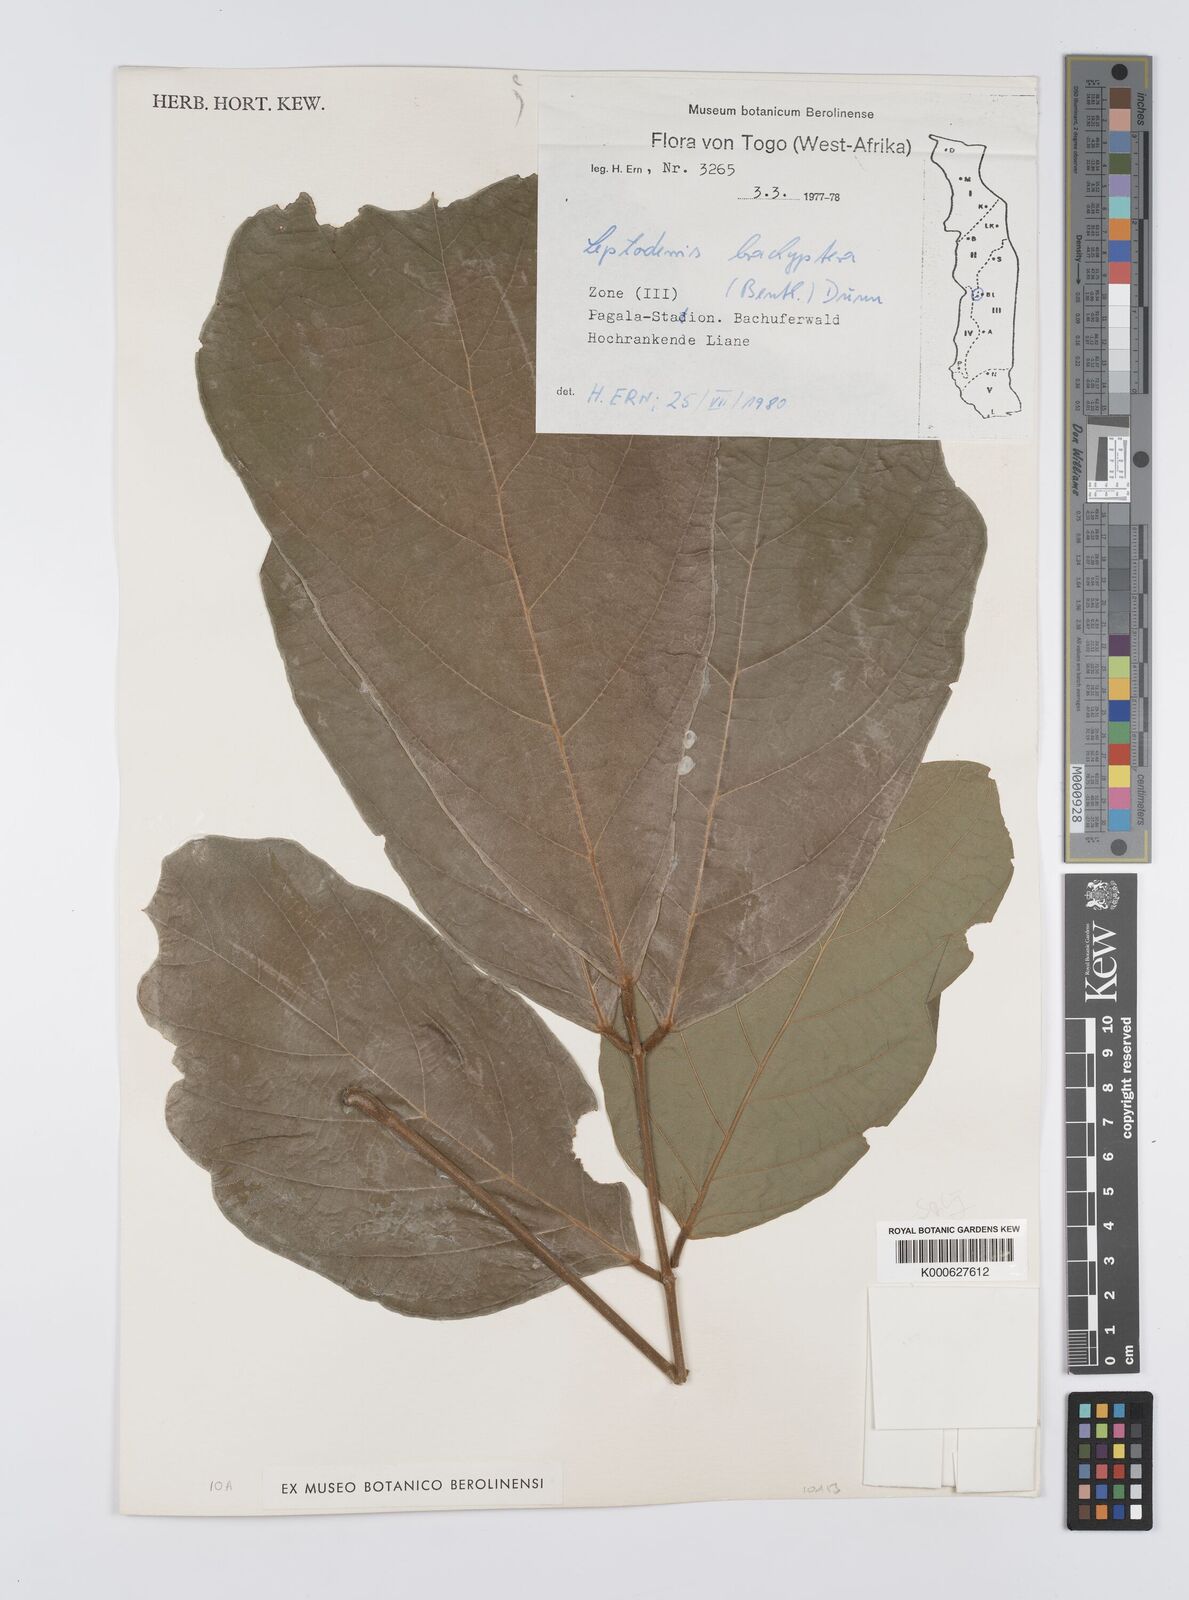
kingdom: Plantae
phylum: Tracheophyta
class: Magnoliopsida
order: Fabales
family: Fabaceae
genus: Leptoderris
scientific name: Leptoderris brachyptera
